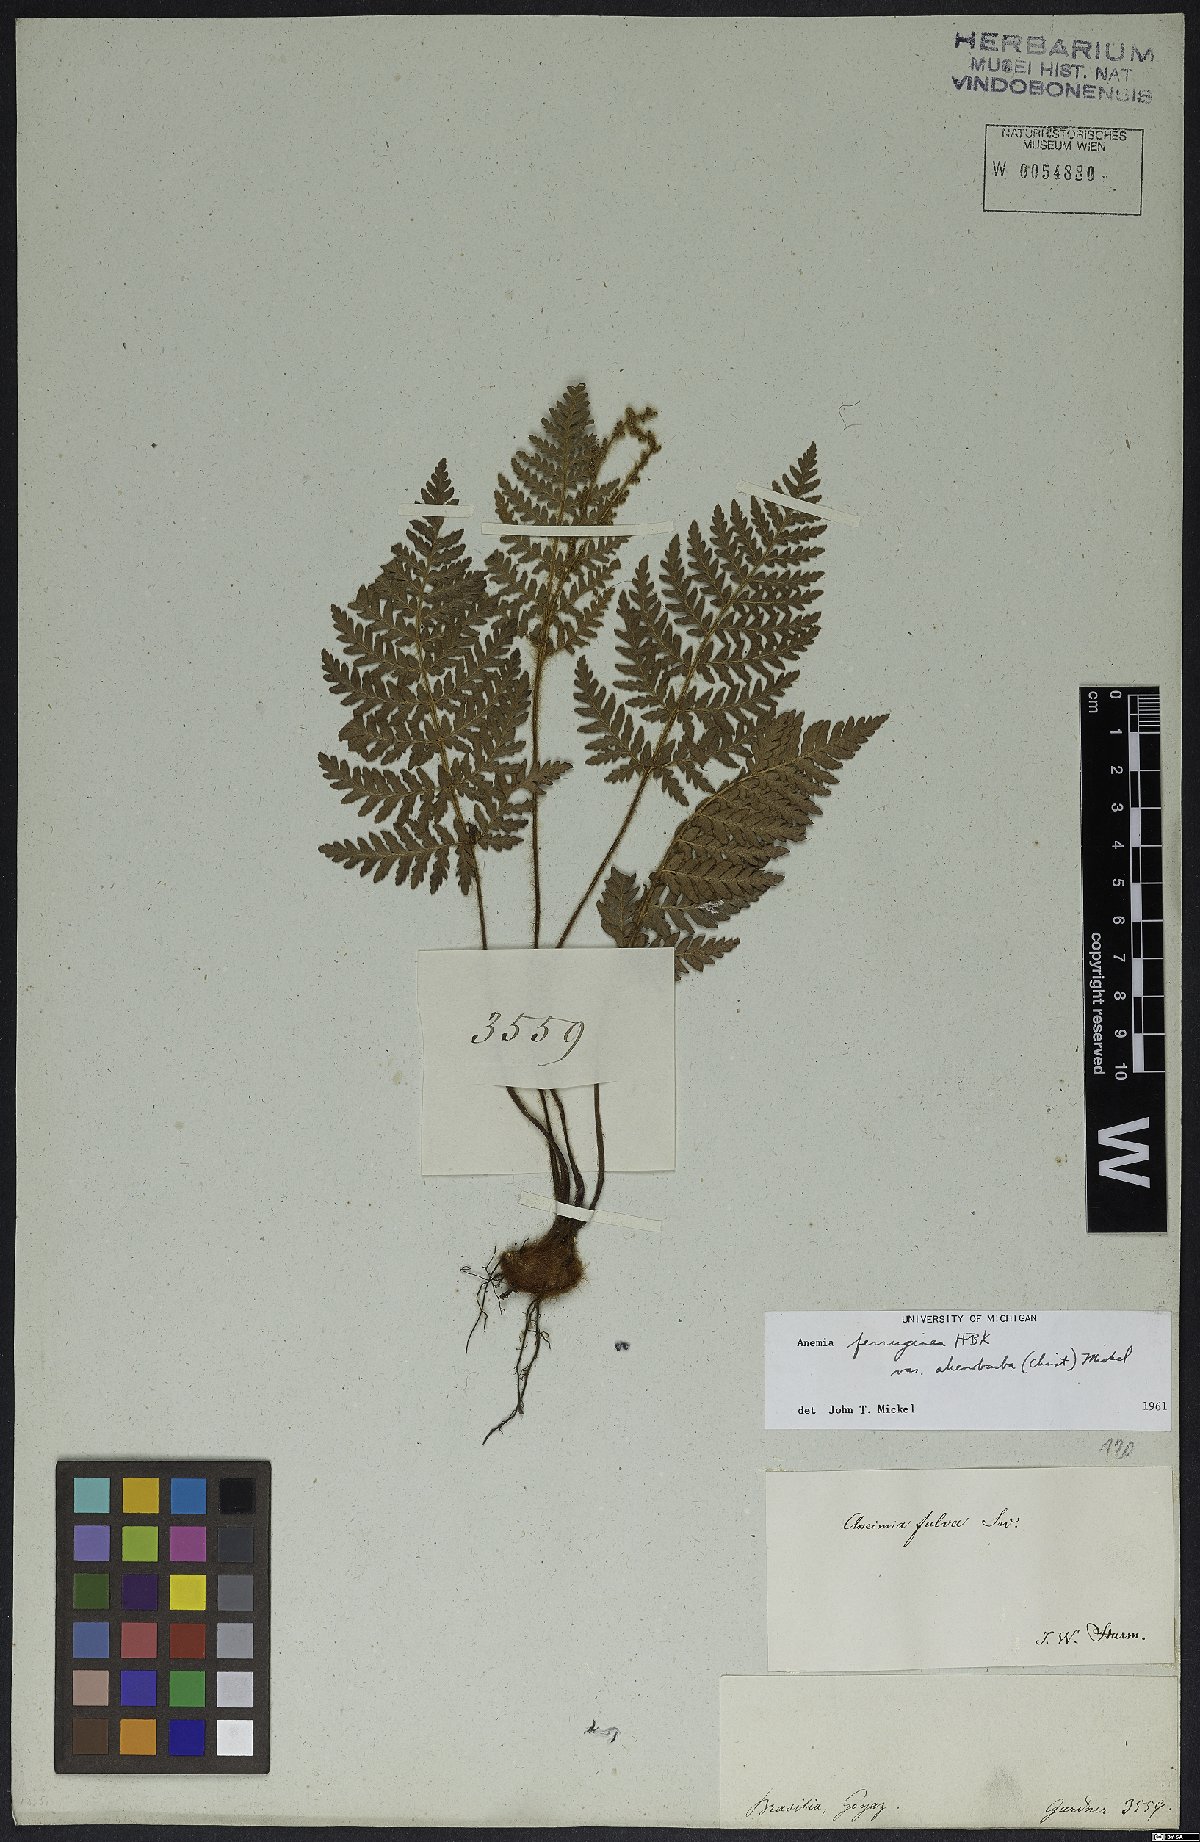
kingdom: Plantae
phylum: Tracheophyta
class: Polypodiopsida
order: Schizaeales
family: Anemiaceae
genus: Anemia
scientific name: Anemia ferruginea
